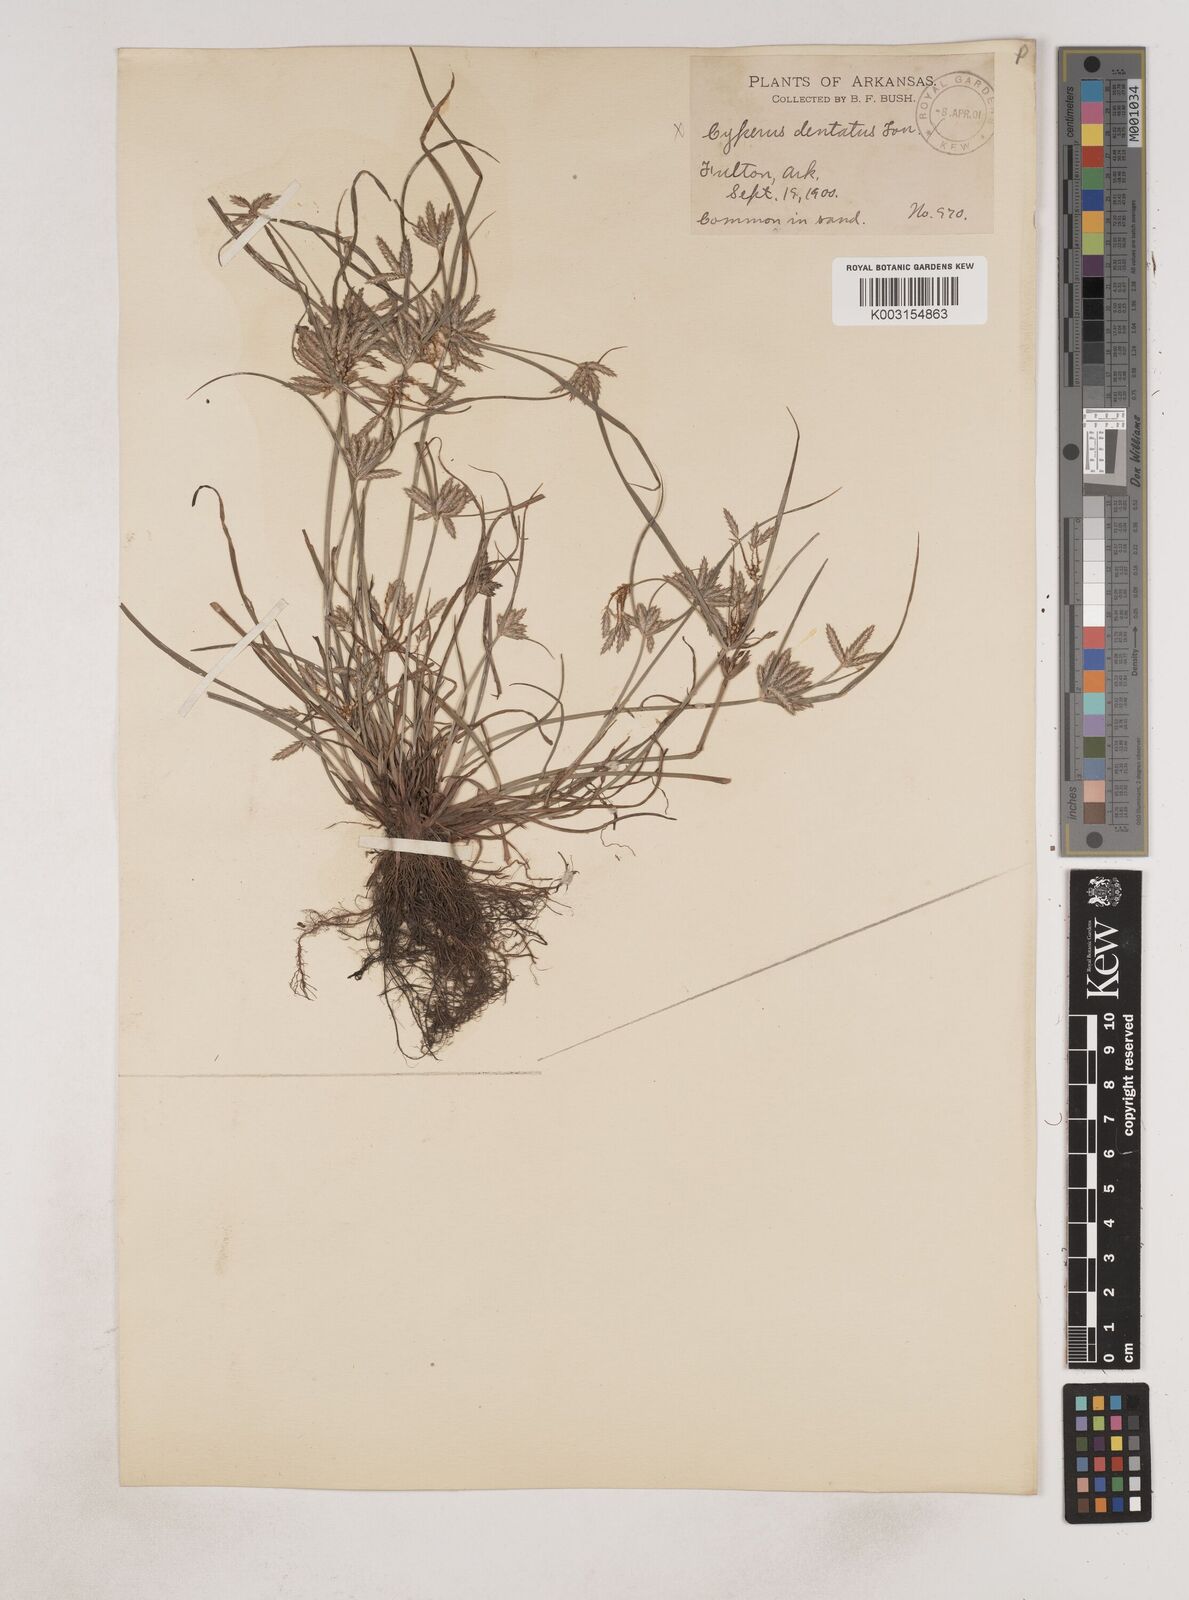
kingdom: Plantae
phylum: Tracheophyta
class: Liliopsida
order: Poales
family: Cyperaceae
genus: Cyperus
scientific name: Cyperus compressus
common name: Poorland flatsedge
